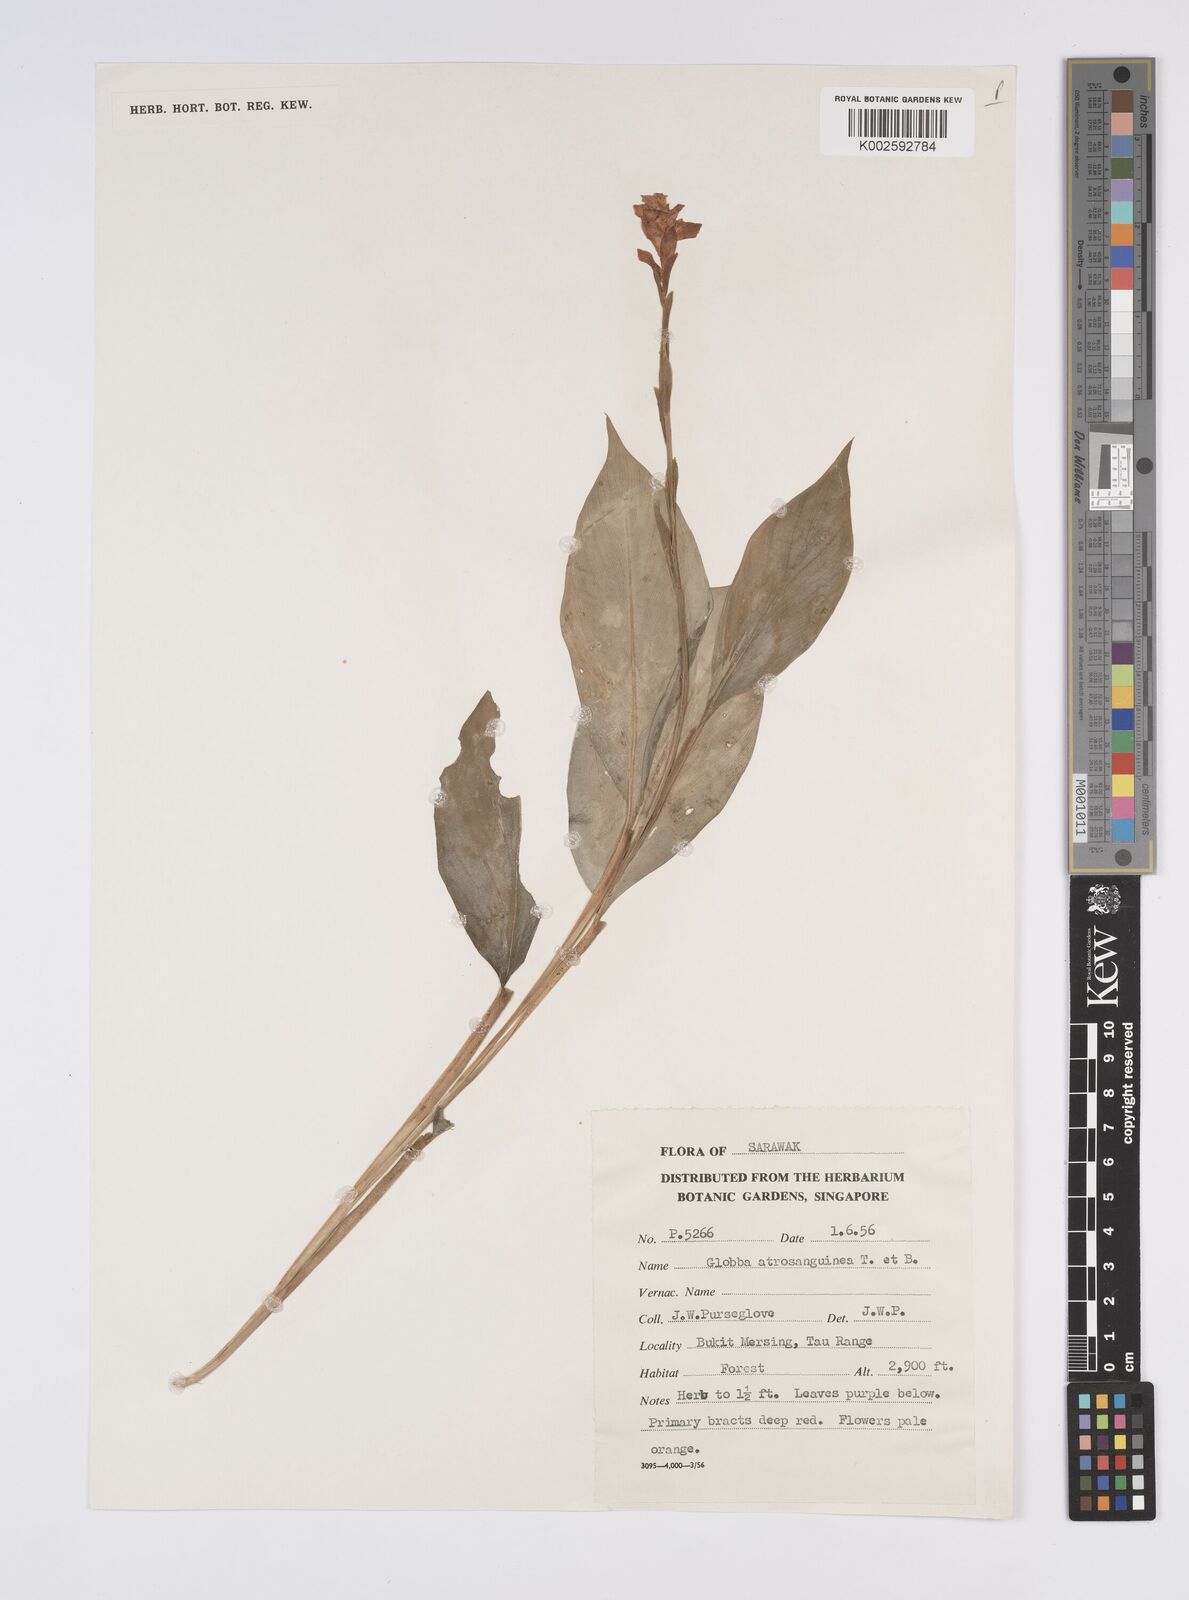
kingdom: Plantae
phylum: Tracheophyta
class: Liliopsida
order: Zingiberales
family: Zingiberaceae
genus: Globba
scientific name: Globba atrosanguinea
